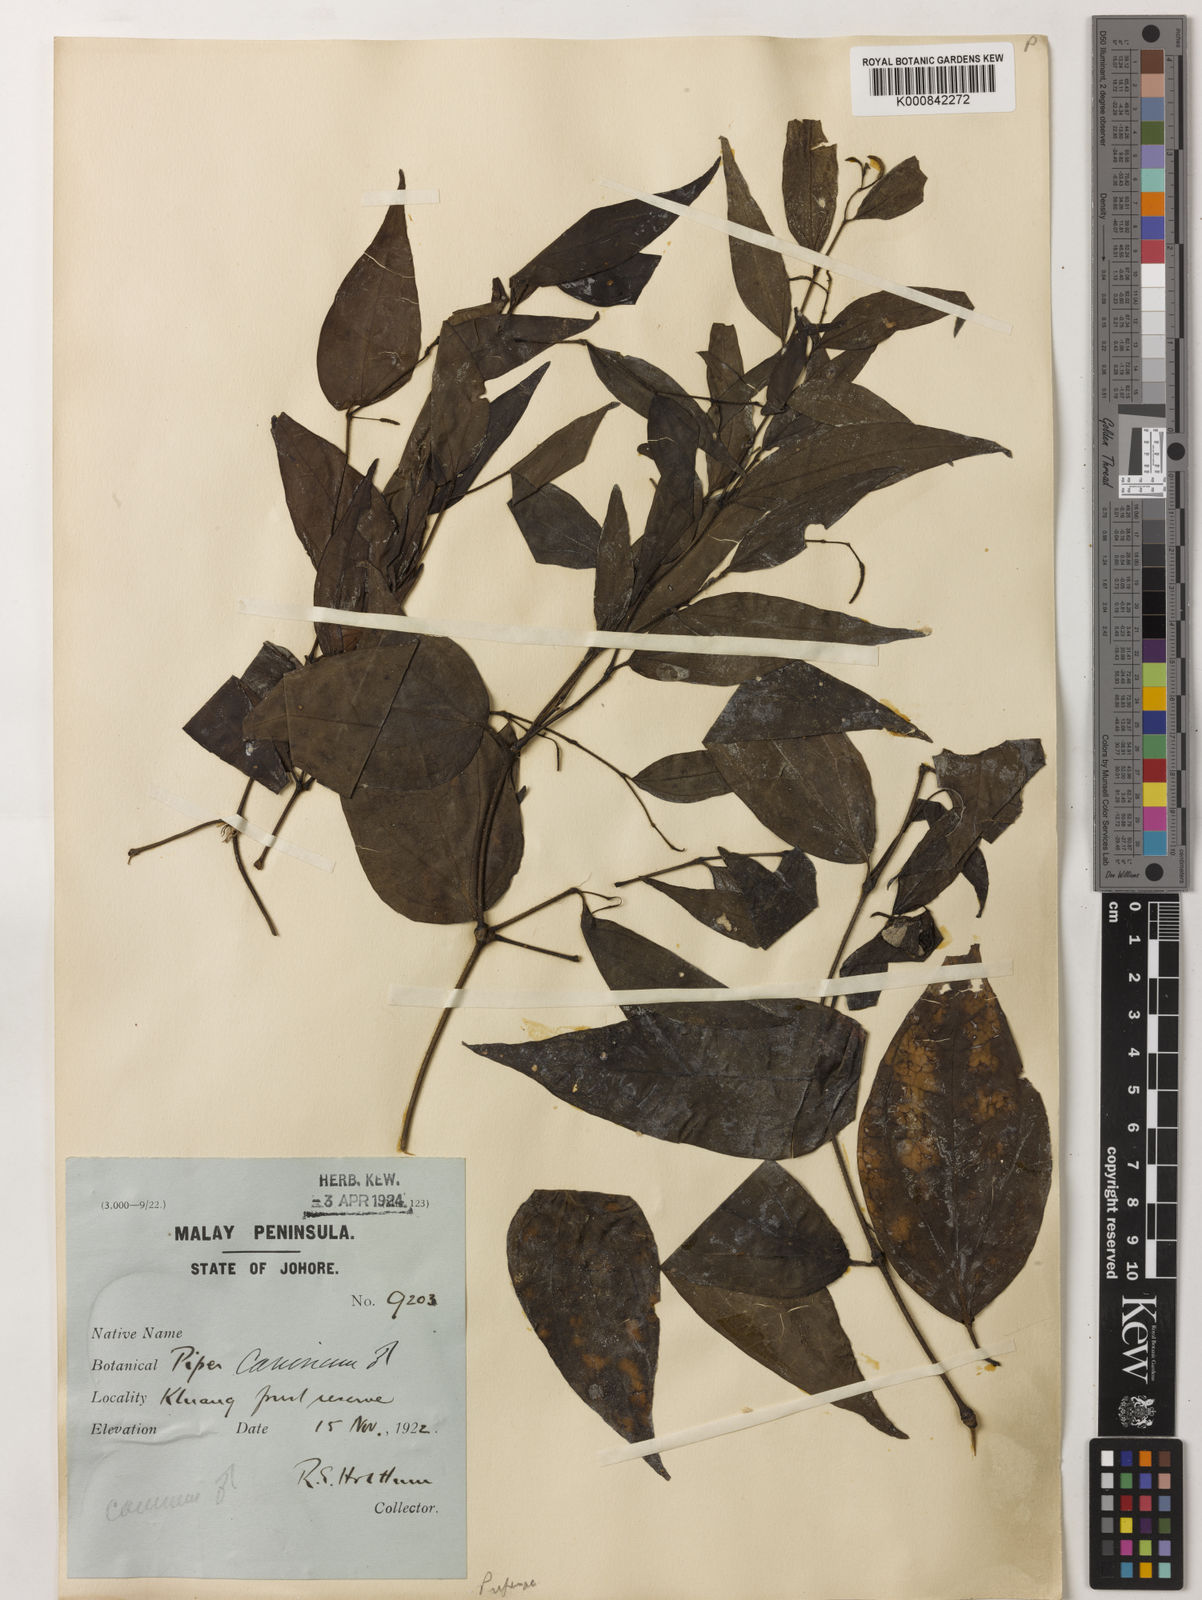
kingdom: Plantae
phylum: Tracheophyta
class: Magnoliopsida
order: Piperales
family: Piperaceae
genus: Piper
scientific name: Piper lanatum
